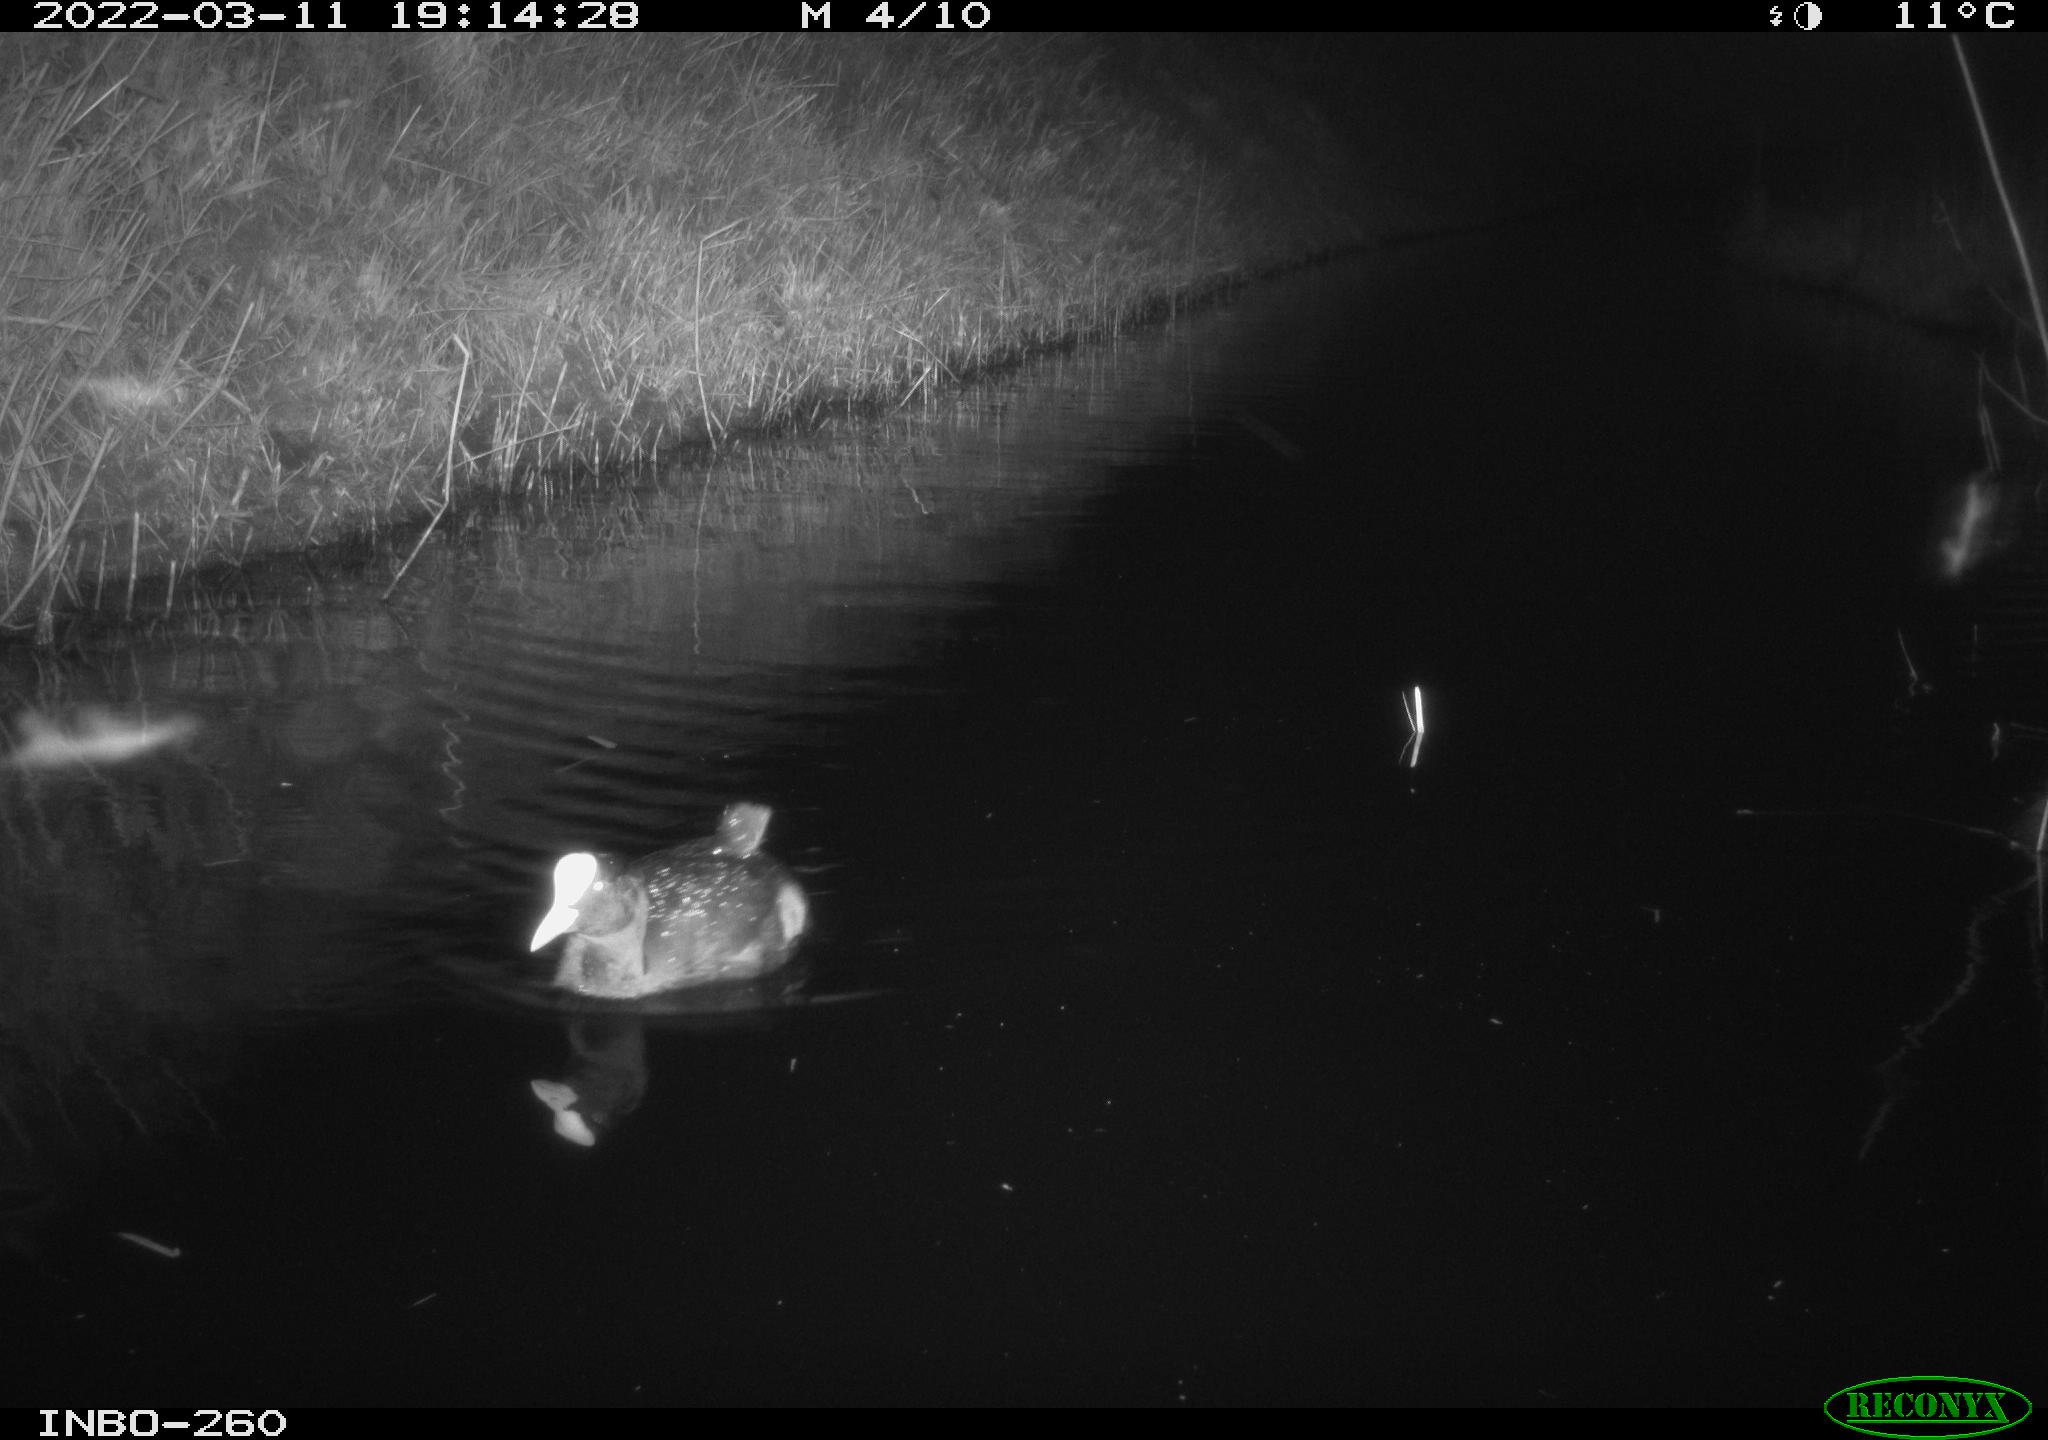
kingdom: Animalia
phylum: Chordata
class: Aves
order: Gruiformes
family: Rallidae
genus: Fulica
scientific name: Fulica atra
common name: Eurasian coot
